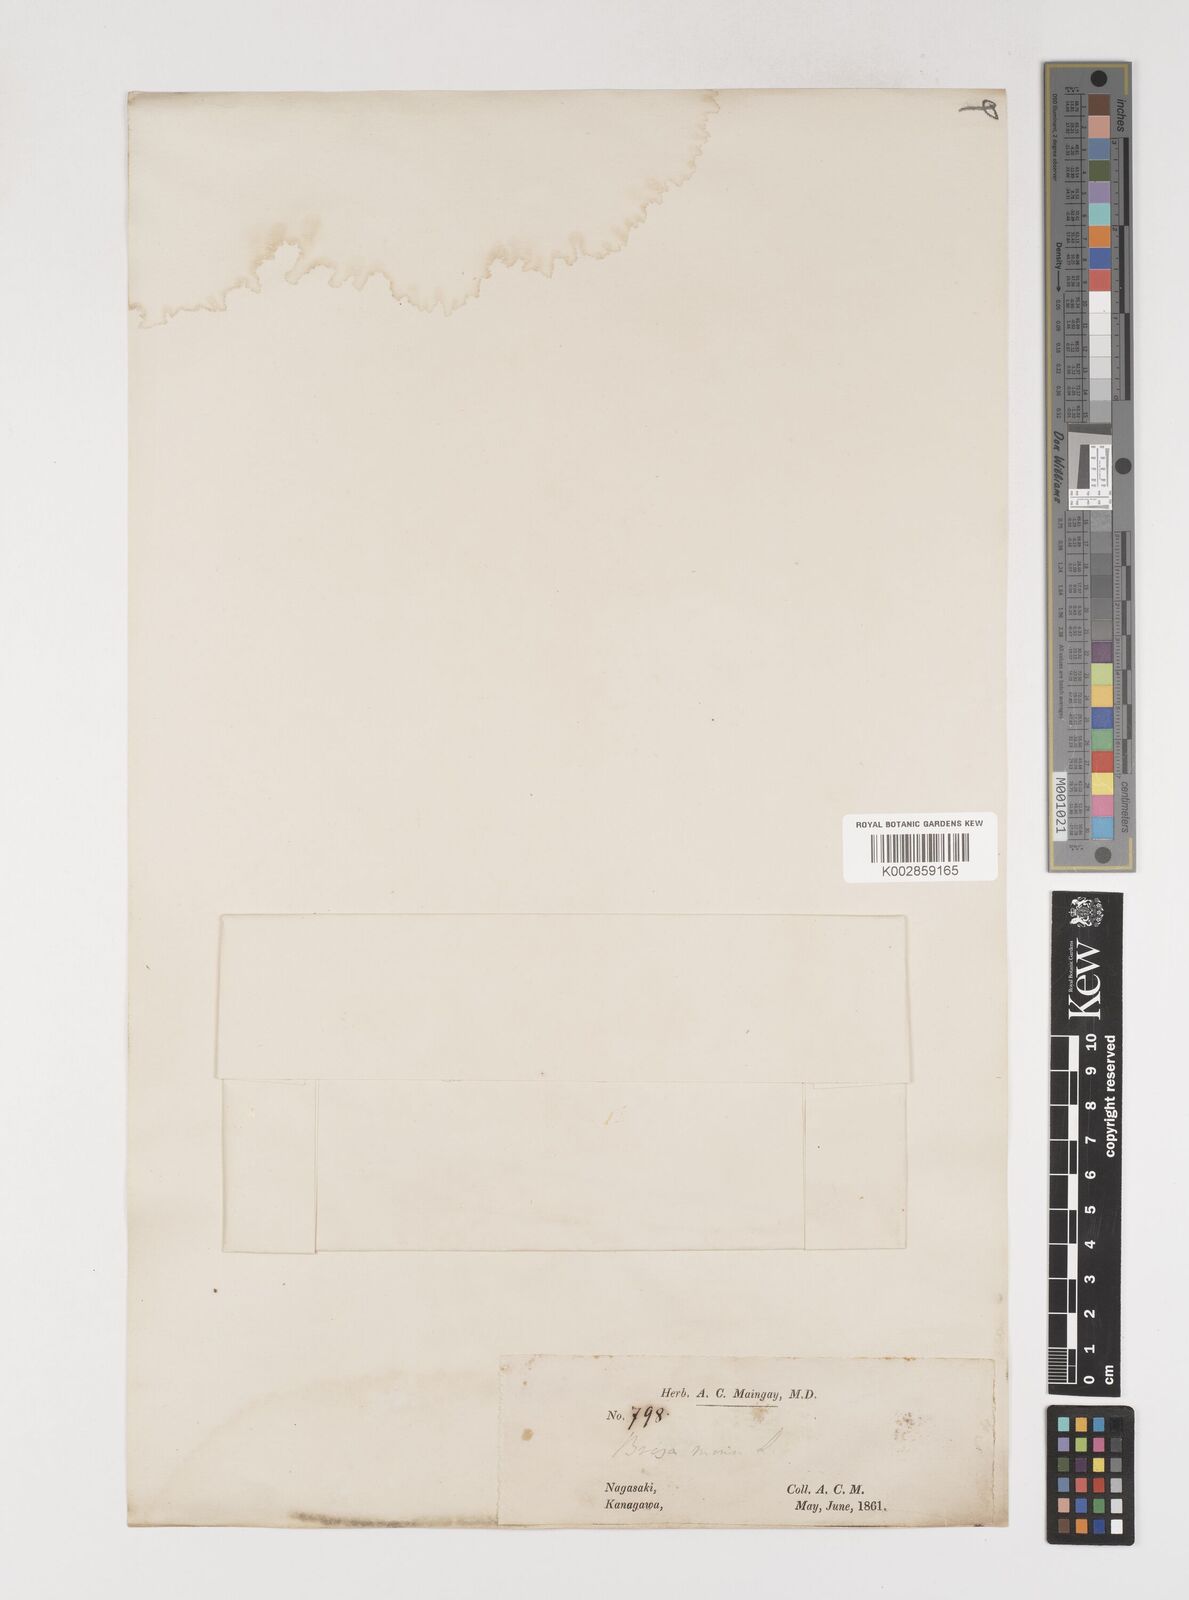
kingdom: Plantae
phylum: Tracheophyta
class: Liliopsida
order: Poales
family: Poaceae
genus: Briza
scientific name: Briza minor
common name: Lesser quaking-grass
